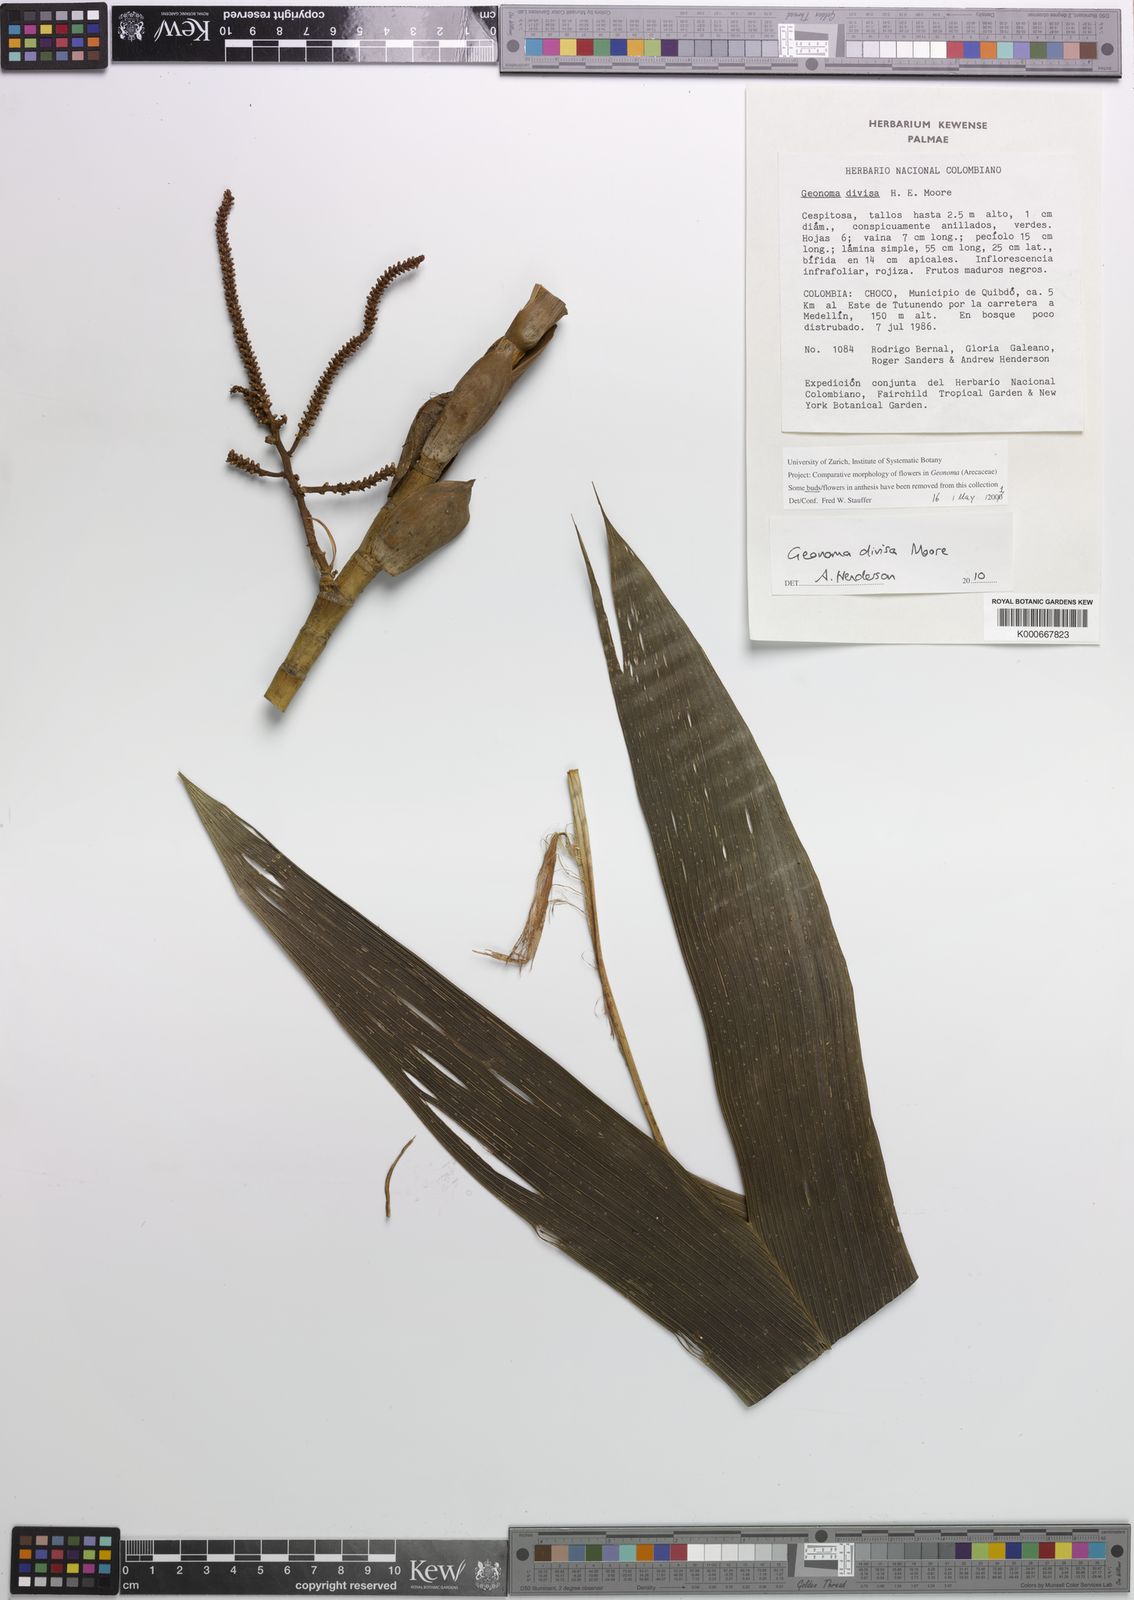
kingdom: Plantae
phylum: Tracheophyta
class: Liliopsida
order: Arecales
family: Arecaceae
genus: Geonoma
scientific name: Geonoma divisa
